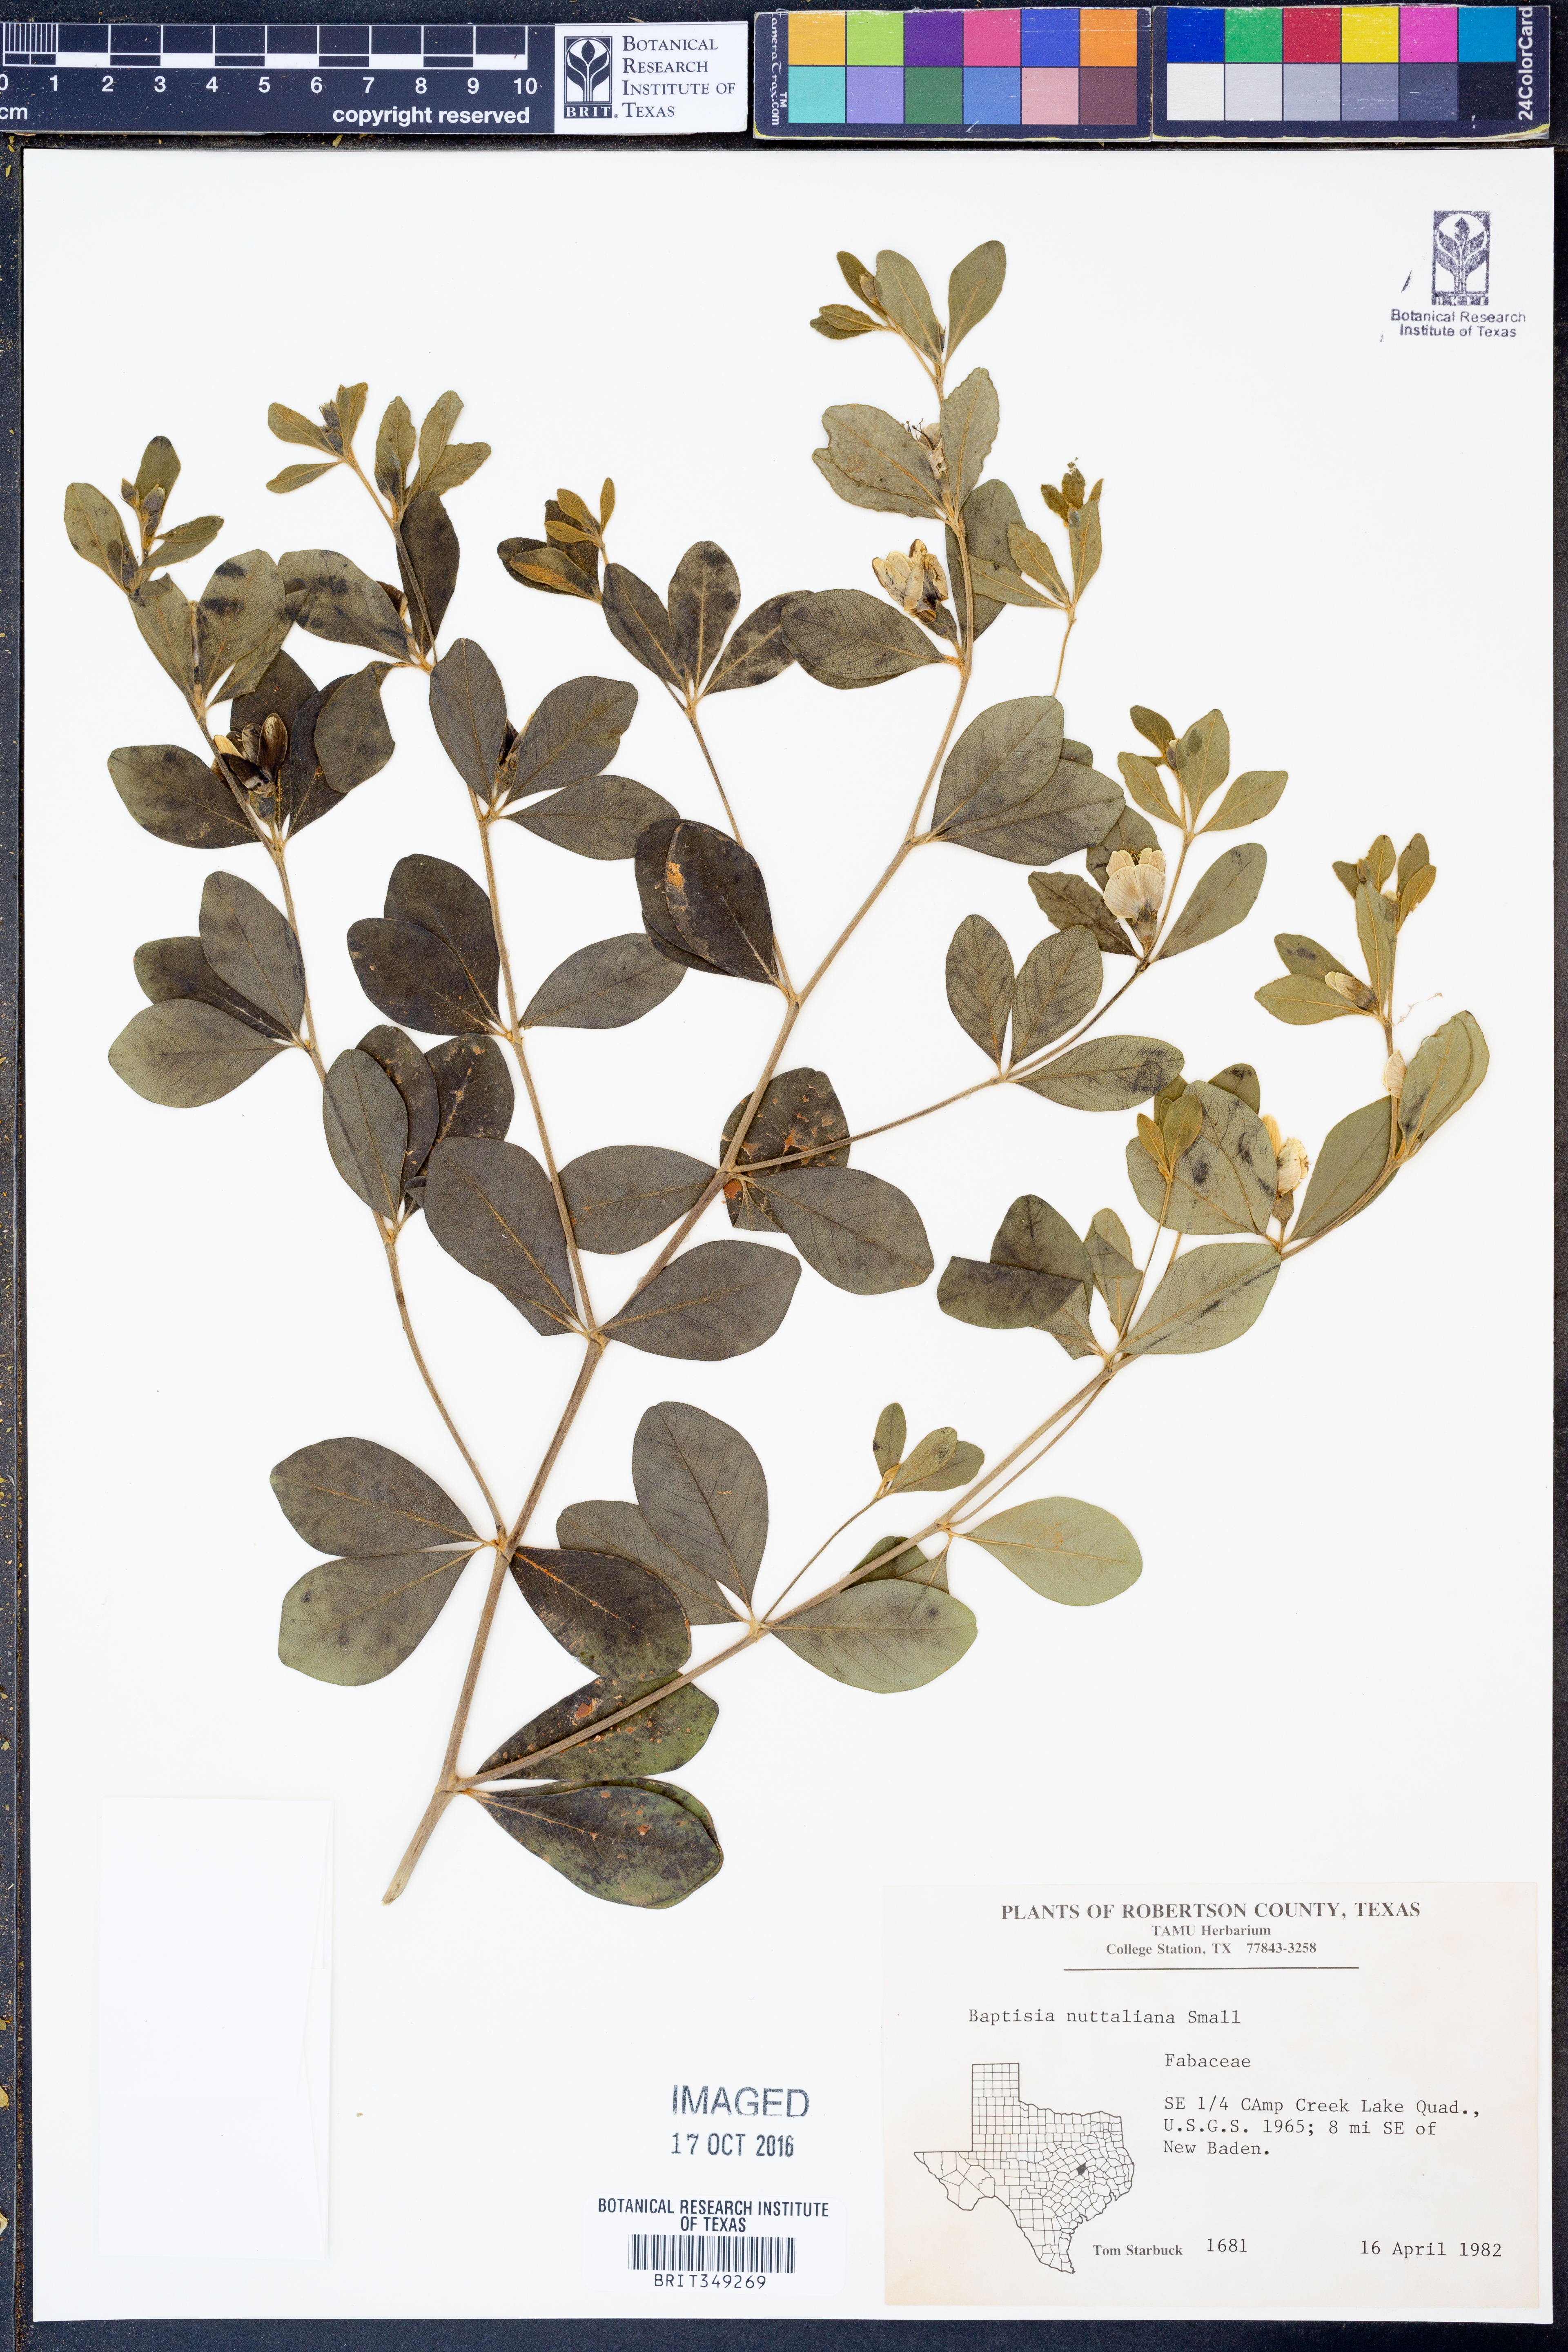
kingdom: Plantae
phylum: Tracheophyta
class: Magnoliopsida
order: Fabales
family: Fabaceae
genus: Baptisia
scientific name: Baptisia nuttalliana
